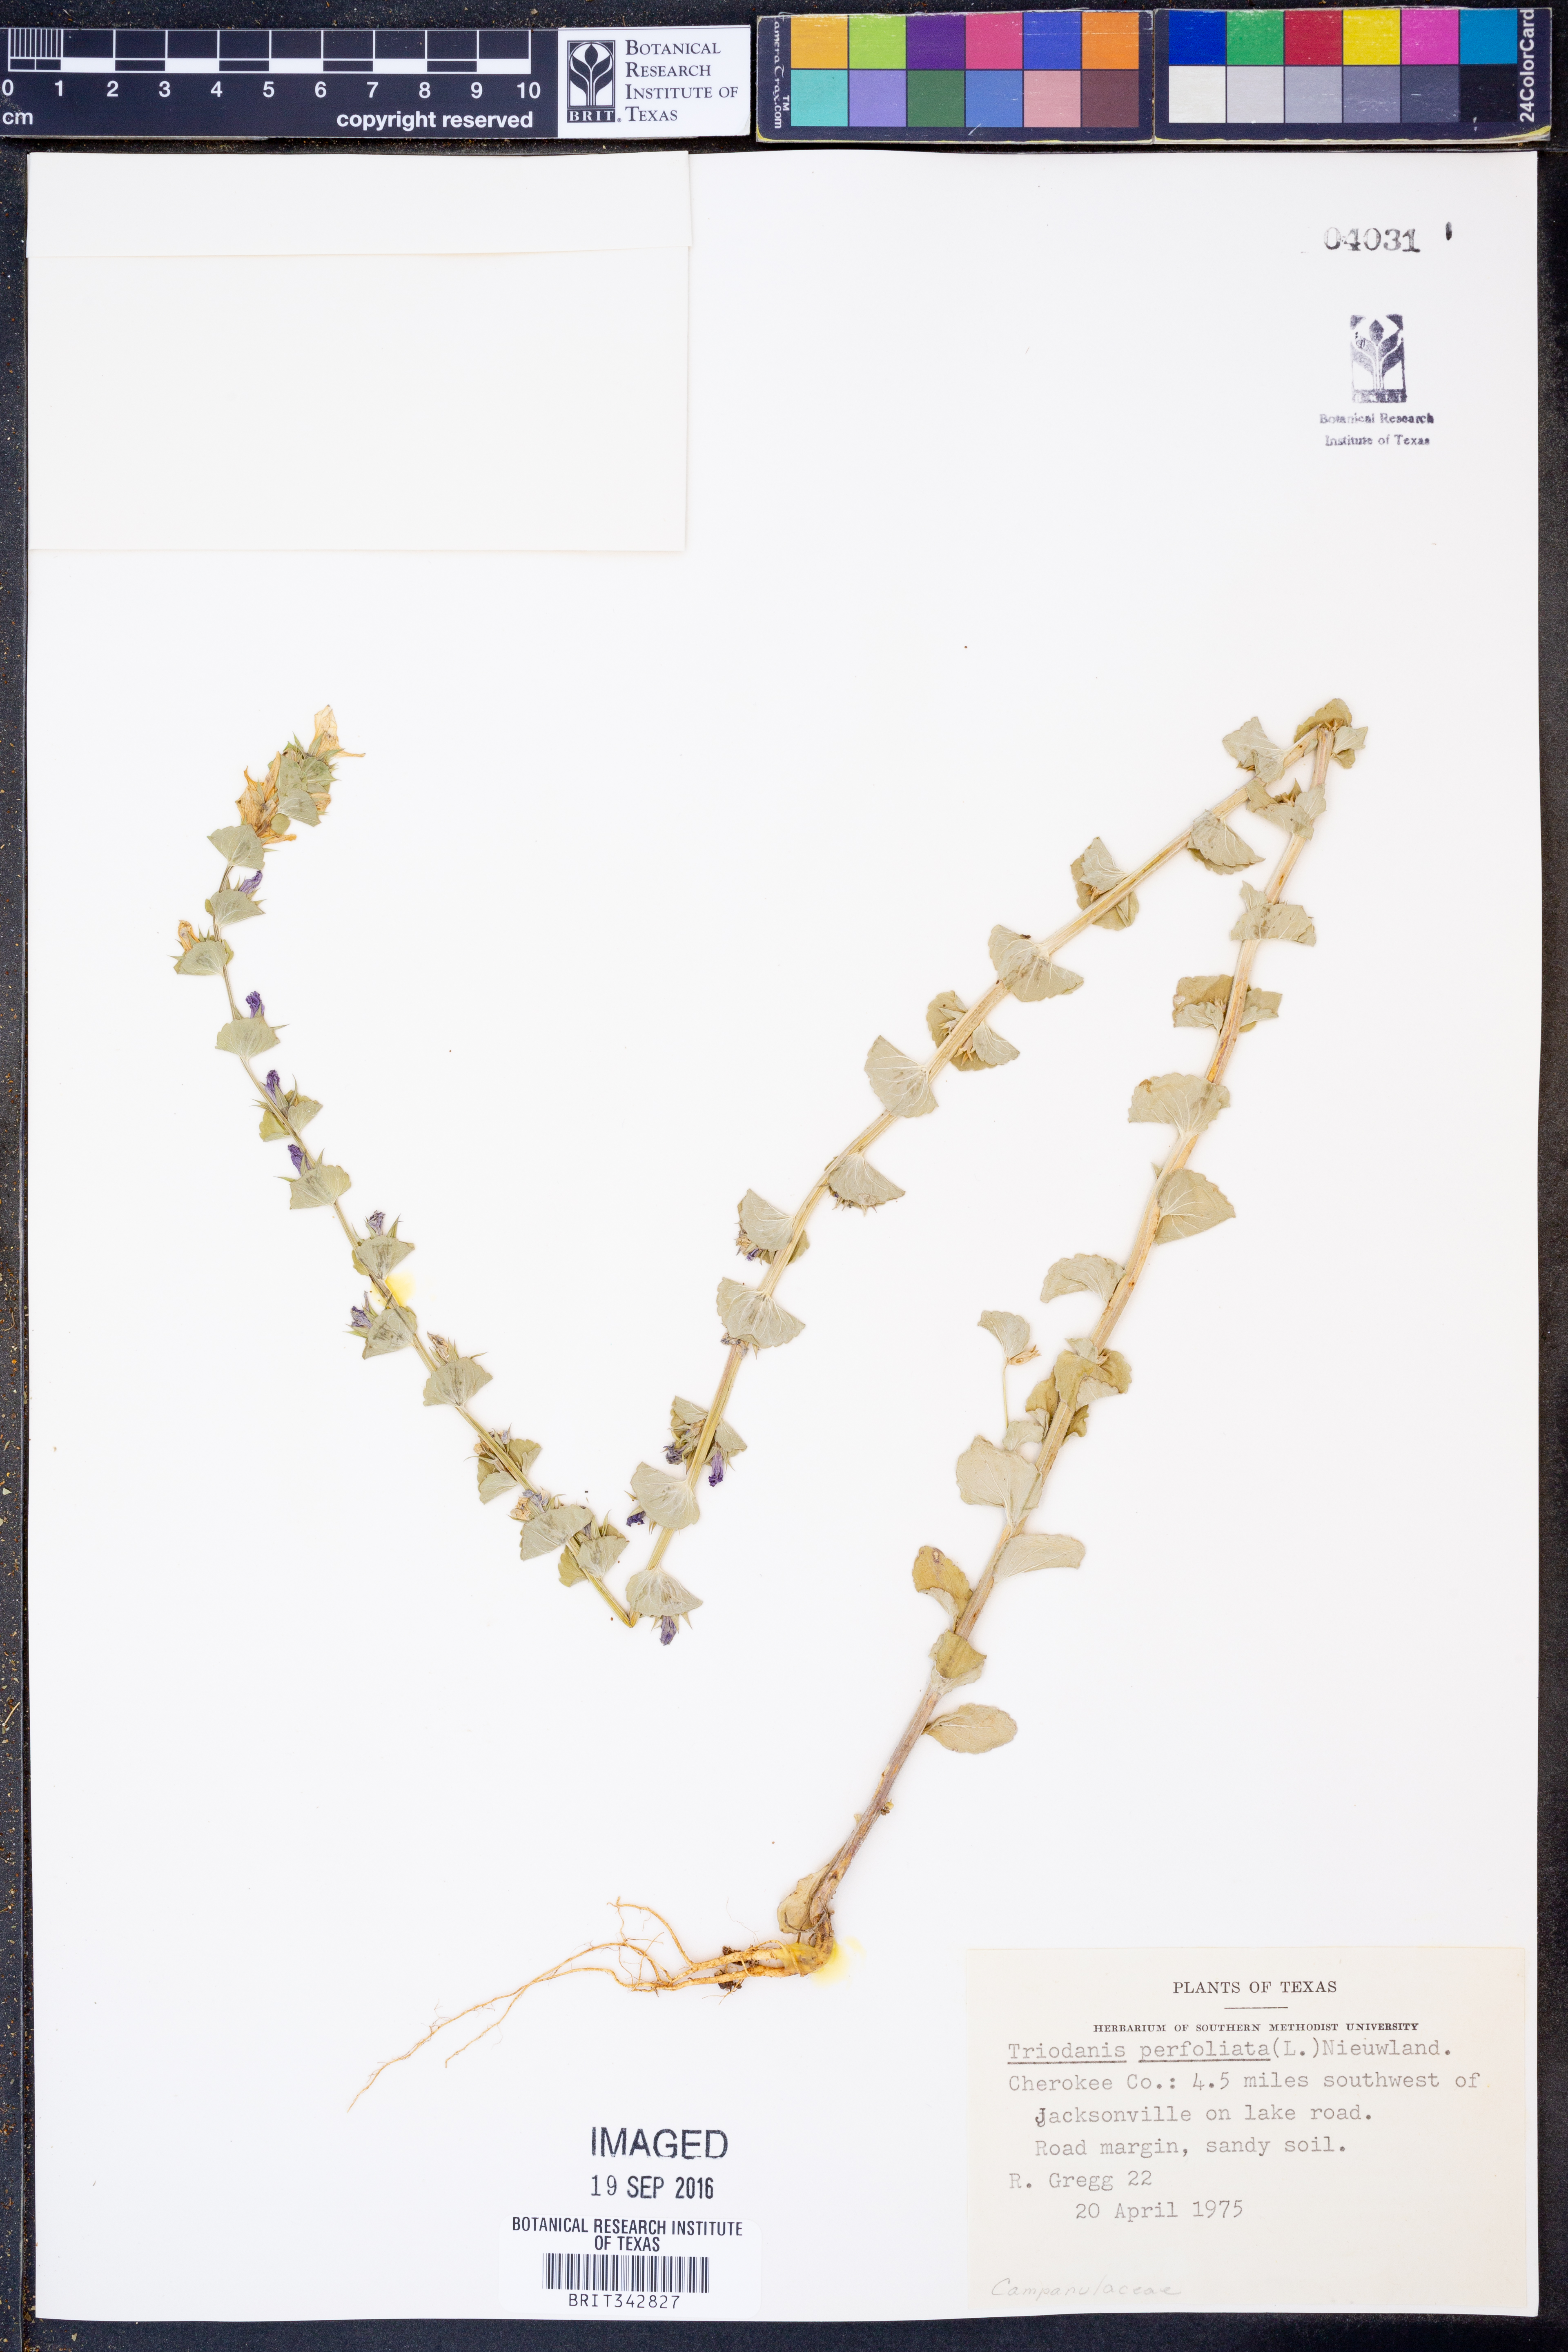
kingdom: Plantae
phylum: Tracheophyta
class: Magnoliopsida
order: Asterales
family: Campanulaceae
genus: Triodanis
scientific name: Triodanis perfoliata
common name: Clasping venus' looking-glass
